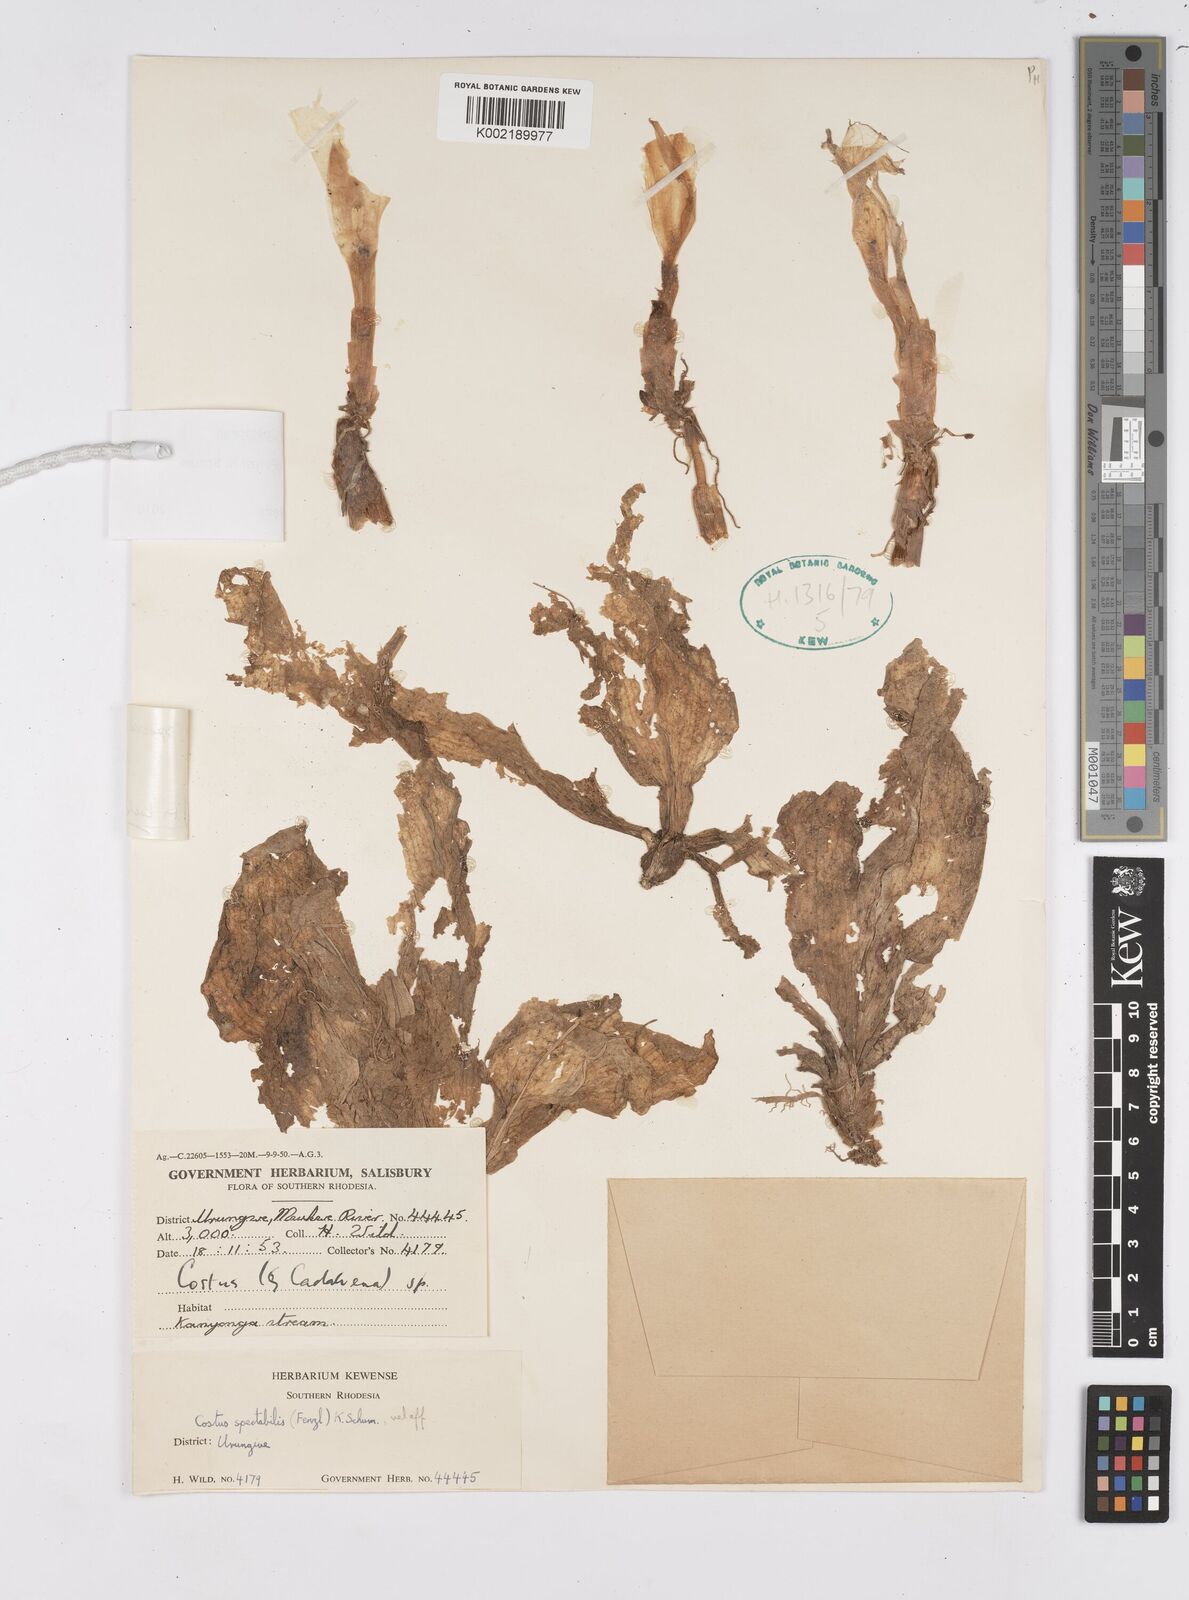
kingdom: Plantae
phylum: Tracheophyta
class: Liliopsida
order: Zingiberales
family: Costaceae
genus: Costus
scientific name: Costus spectabilis
